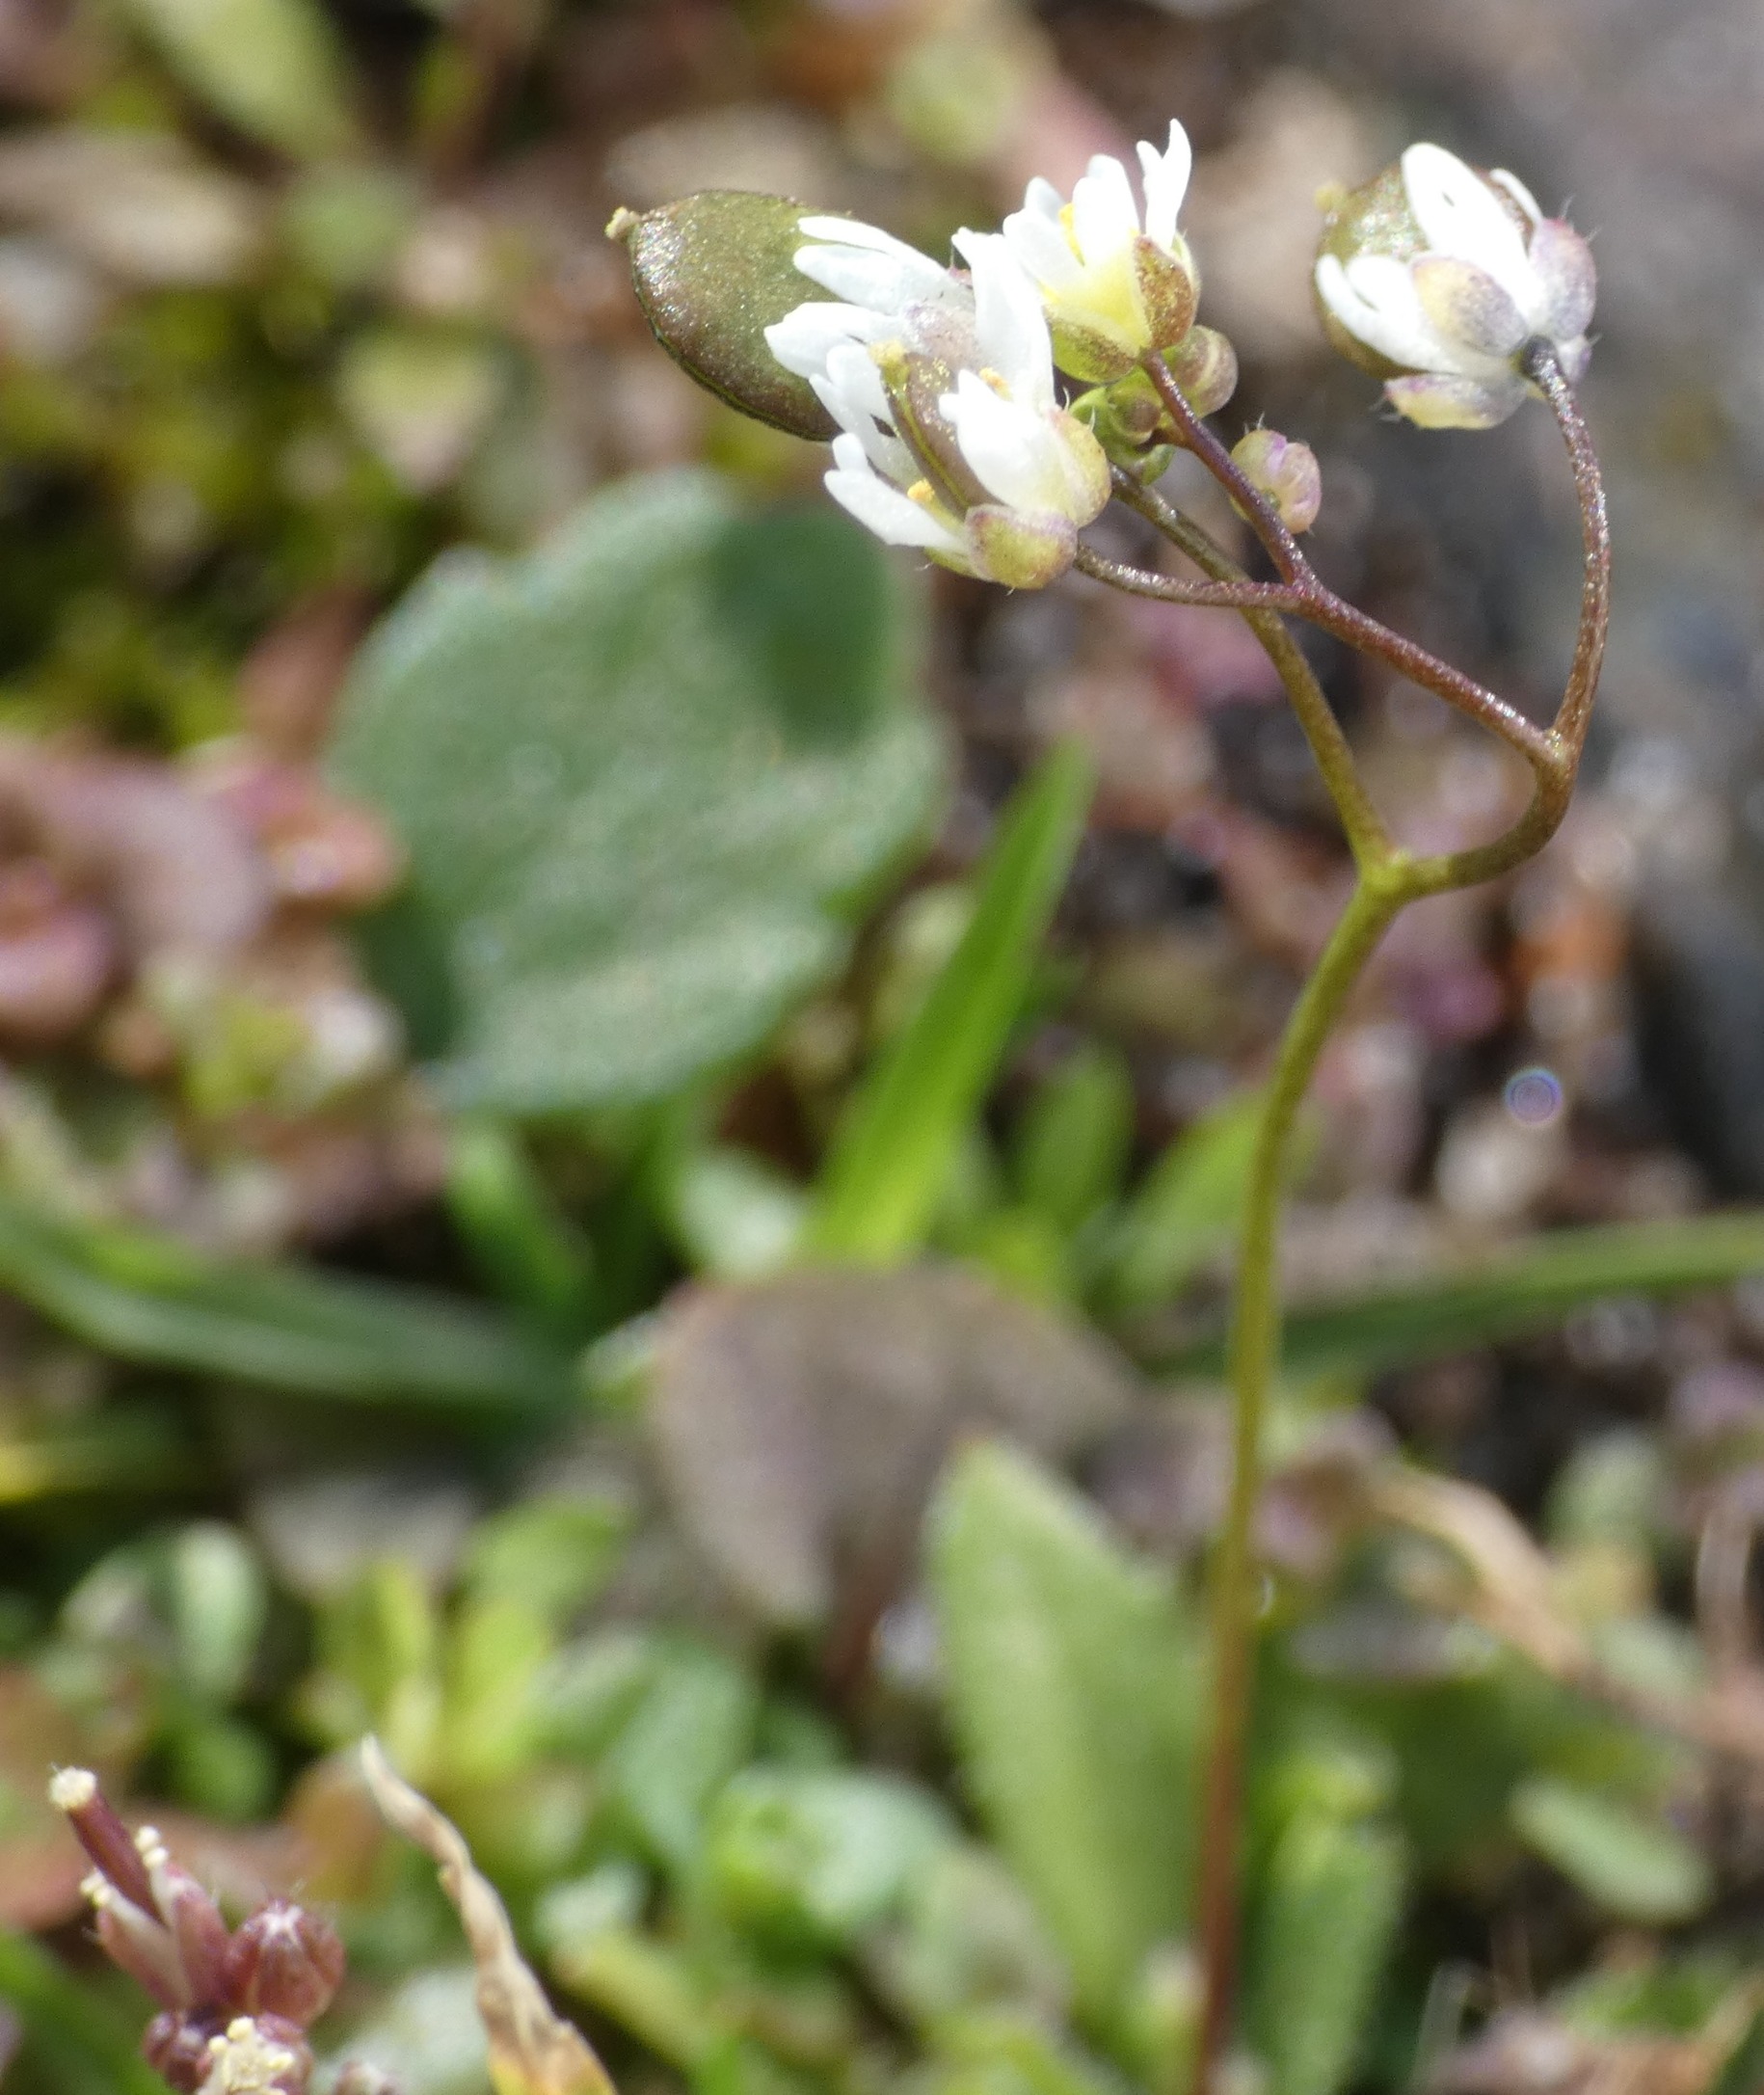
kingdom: Plantae
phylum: Tracheophyta
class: Magnoliopsida
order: Brassicales
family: Brassicaceae
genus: Draba
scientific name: Draba verna
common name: Vår-gæslingeblomst
